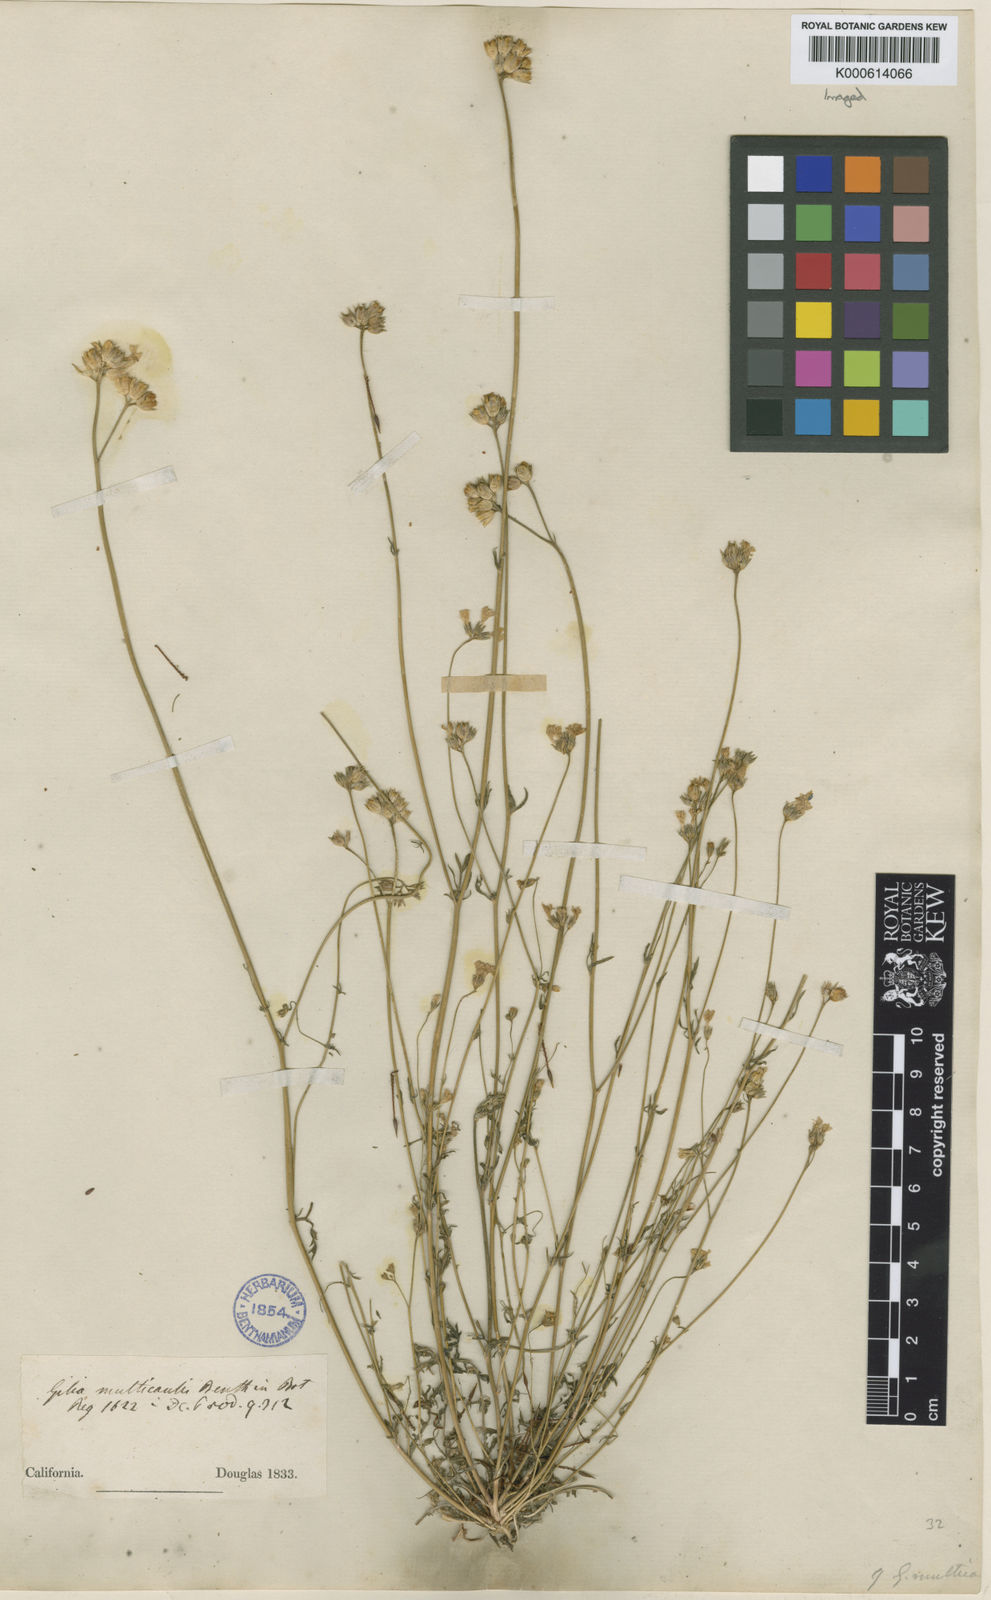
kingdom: Plantae
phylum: Tracheophyta
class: Magnoliopsida
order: Ericales
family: Polemoniaceae
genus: Gilia
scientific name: Gilia achilleifolia
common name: California gily-flower
